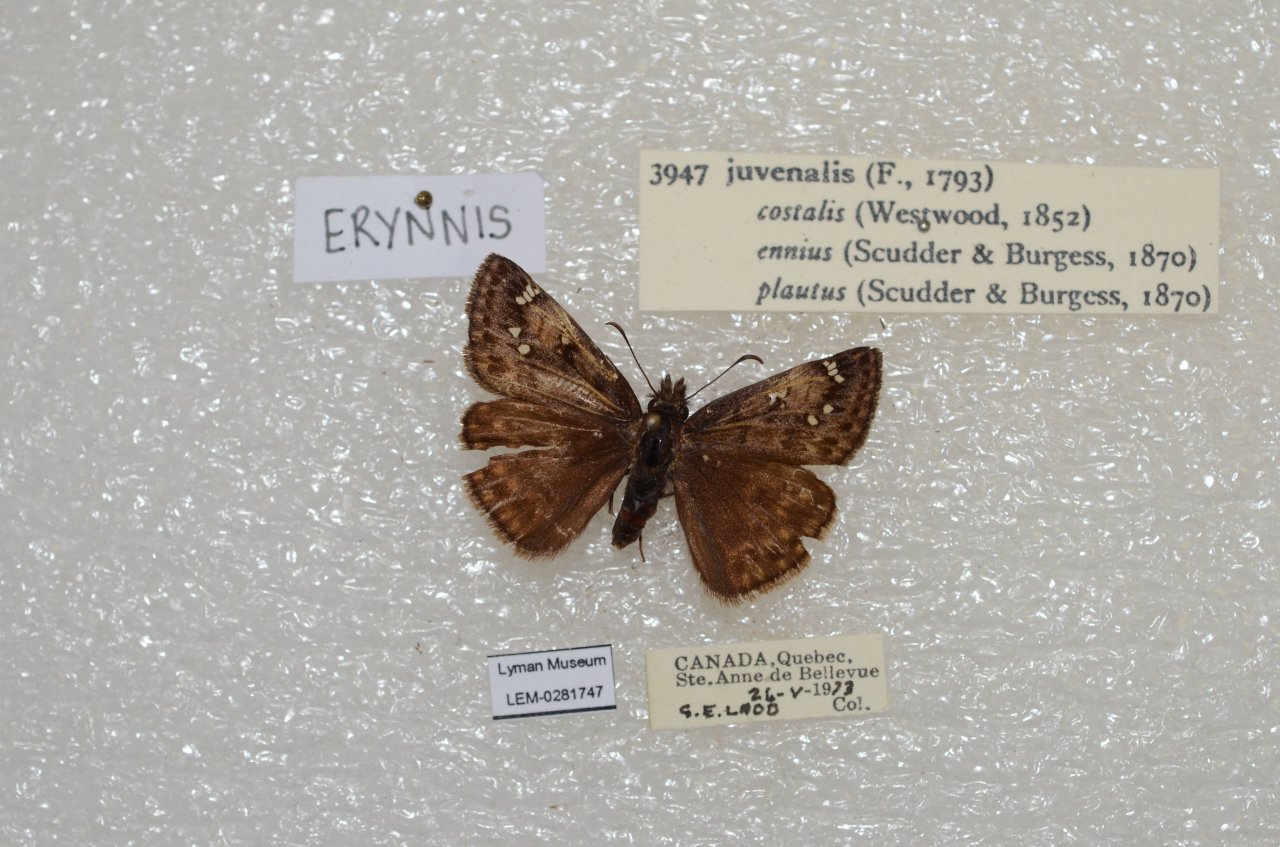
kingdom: Animalia
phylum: Arthropoda
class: Insecta
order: Lepidoptera
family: Hesperiidae
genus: Gesta
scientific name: Gesta
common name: Juvenal's Duskywing
